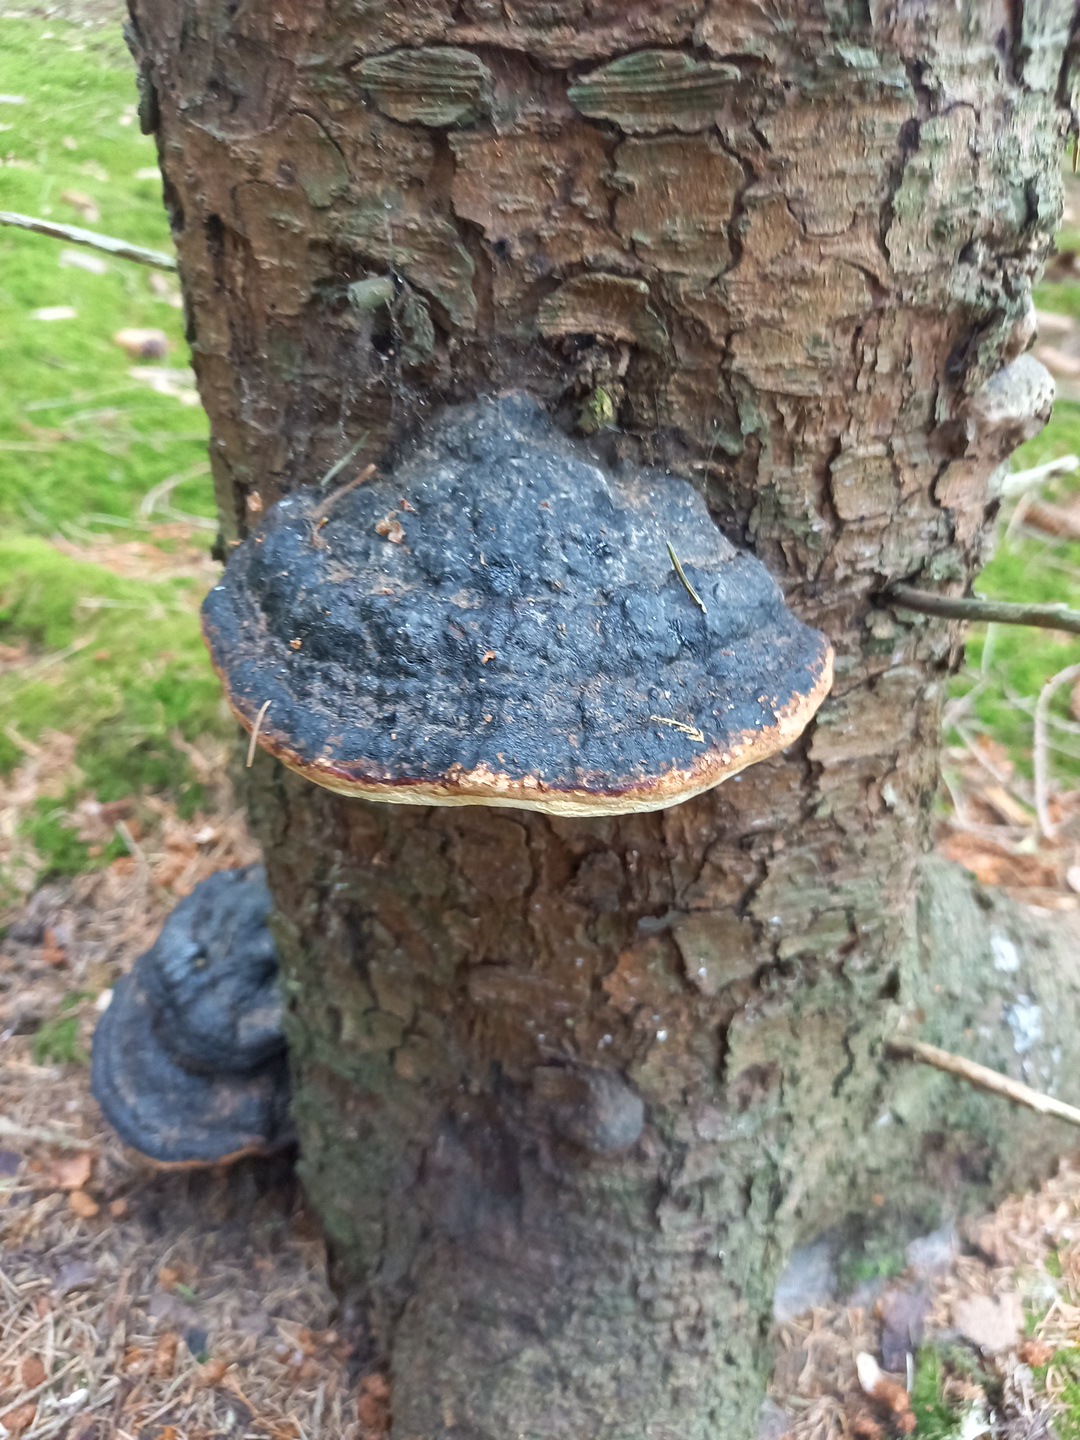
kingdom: Fungi
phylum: Basidiomycota
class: Agaricomycetes
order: Polyporales
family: Fomitopsidaceae
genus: Fomitopsis
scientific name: Fomitopsis pinicola
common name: randbæltet hovporesvamp
